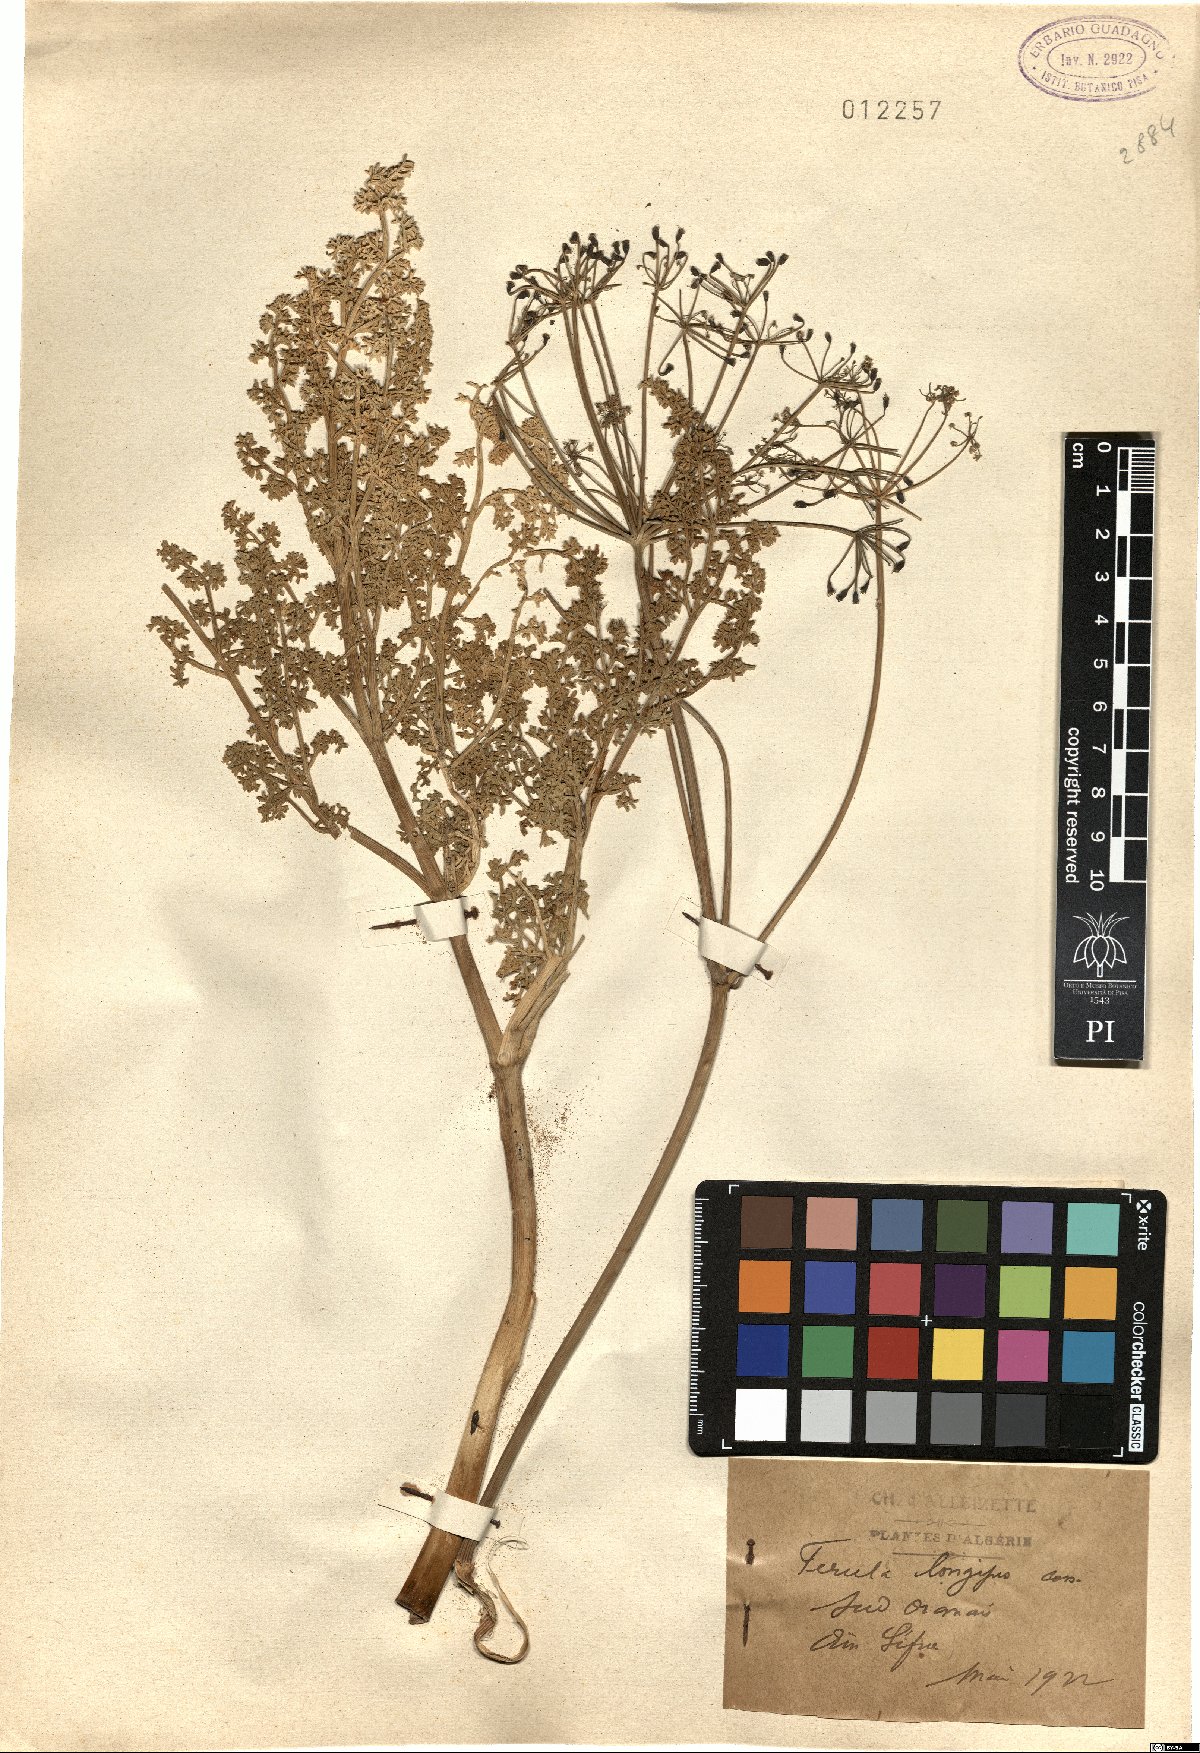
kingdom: Plantae
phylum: Tracheophyta
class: Magnoliopsida
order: Apiales
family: Apiaceae
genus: Ferula
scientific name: Ferula longipes
